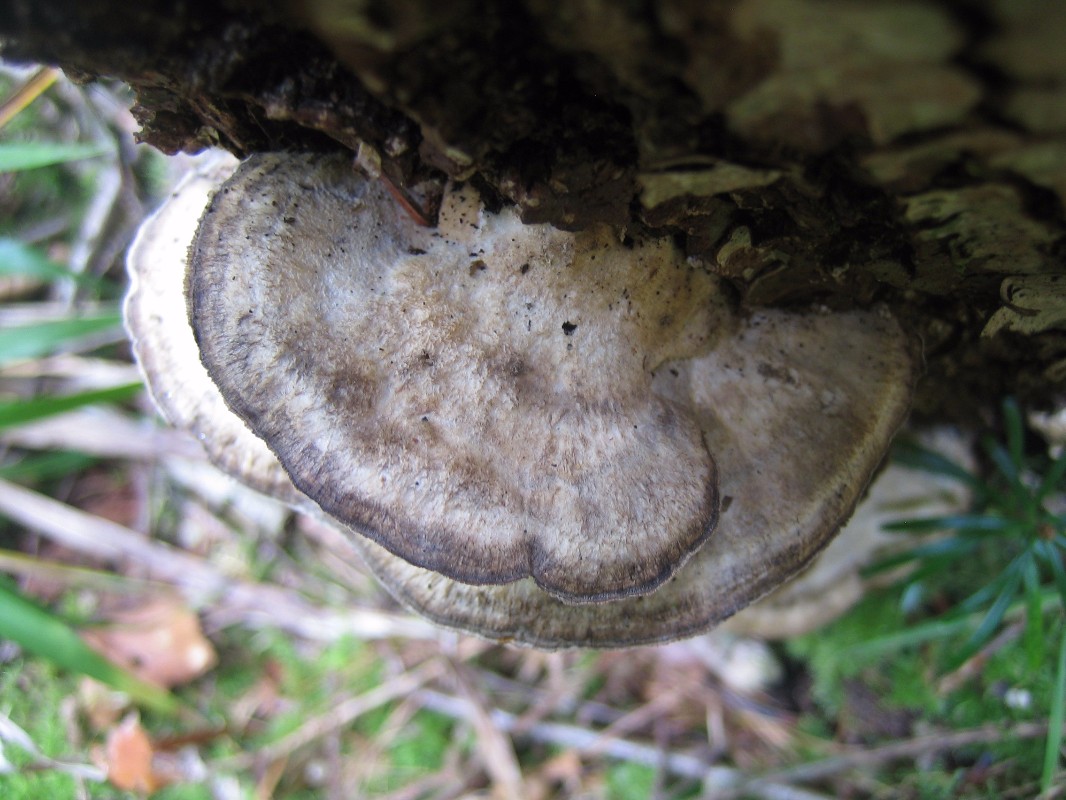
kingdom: Fungi
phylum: Basidiomycota
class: Agaricomycetes
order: Polyporales
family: Phanerochaetaceae
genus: Bjerkandera
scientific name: Bjerkandera adusta
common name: sveden sodporesvamp
